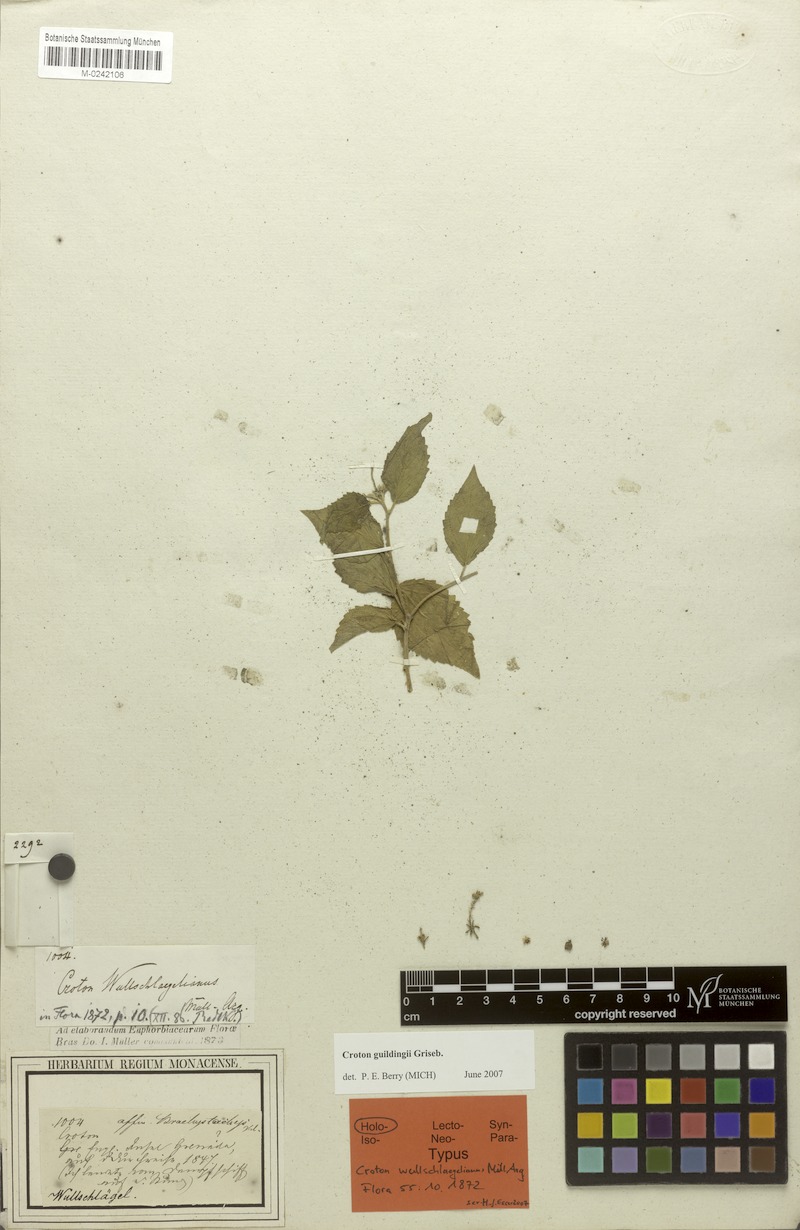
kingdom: Plantae
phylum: Tracheophyta
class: Magnoliopsida
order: Malpighiales
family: Euphorbiaceae
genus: Croton
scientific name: Croton suavis
